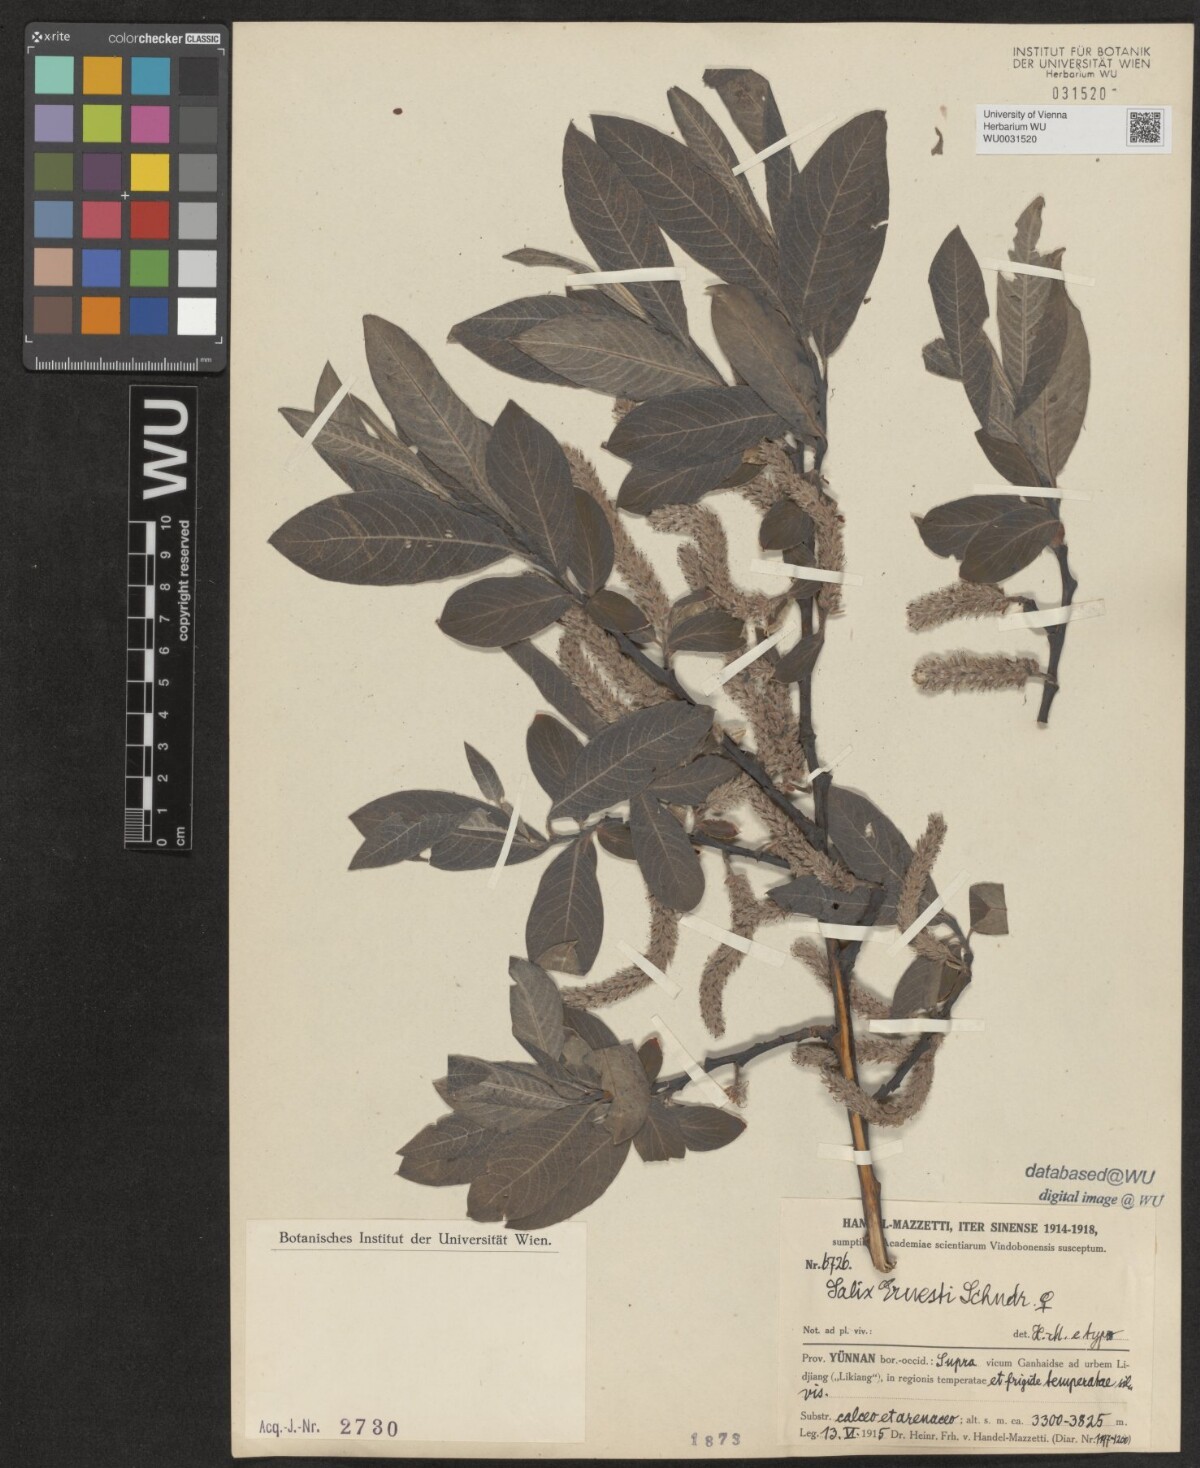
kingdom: Plantae
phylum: Tracheophyta
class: Magnoliopsida
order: Malpighiales
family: Salicaceae
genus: Salix
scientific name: Salix ernestii
